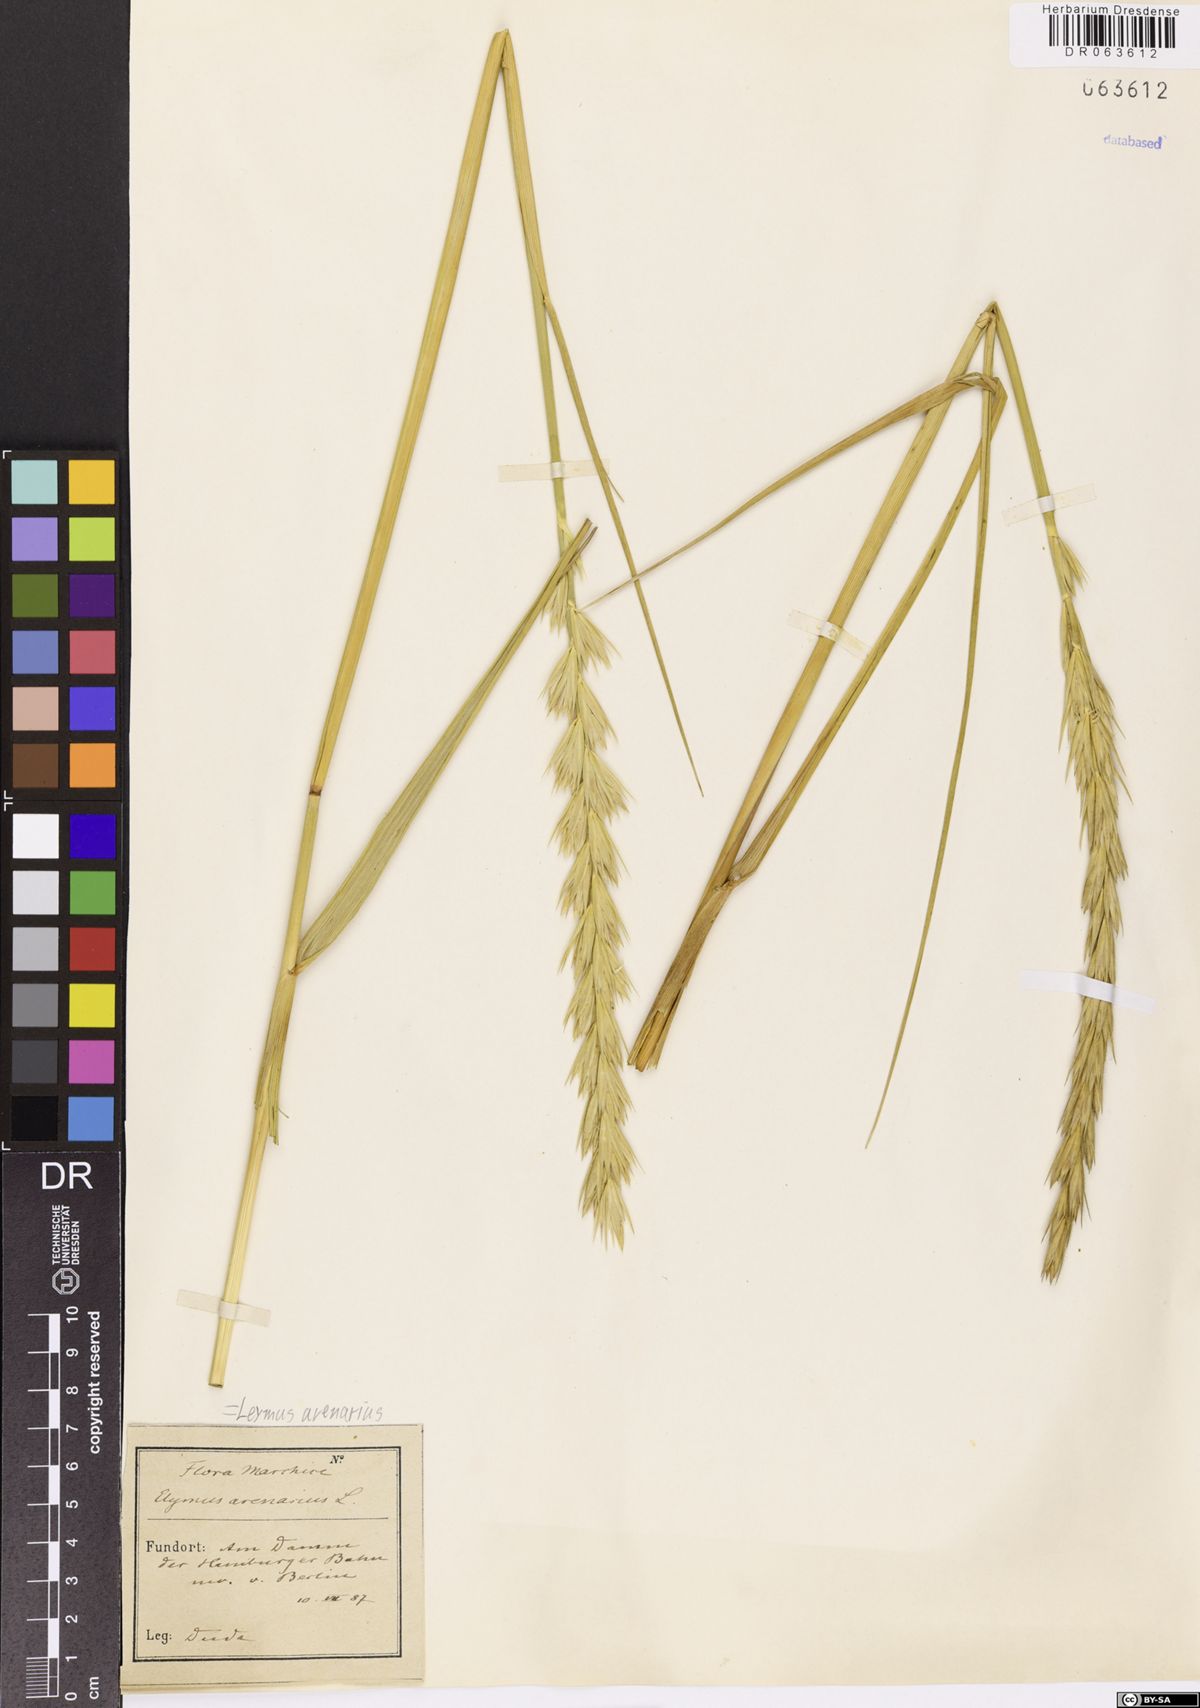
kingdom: Plantae
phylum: Tracheophyta
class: Liliopsida
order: Poales
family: Poaceae
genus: Leymus
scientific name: Leymus arenarius
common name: Lyme-grass
